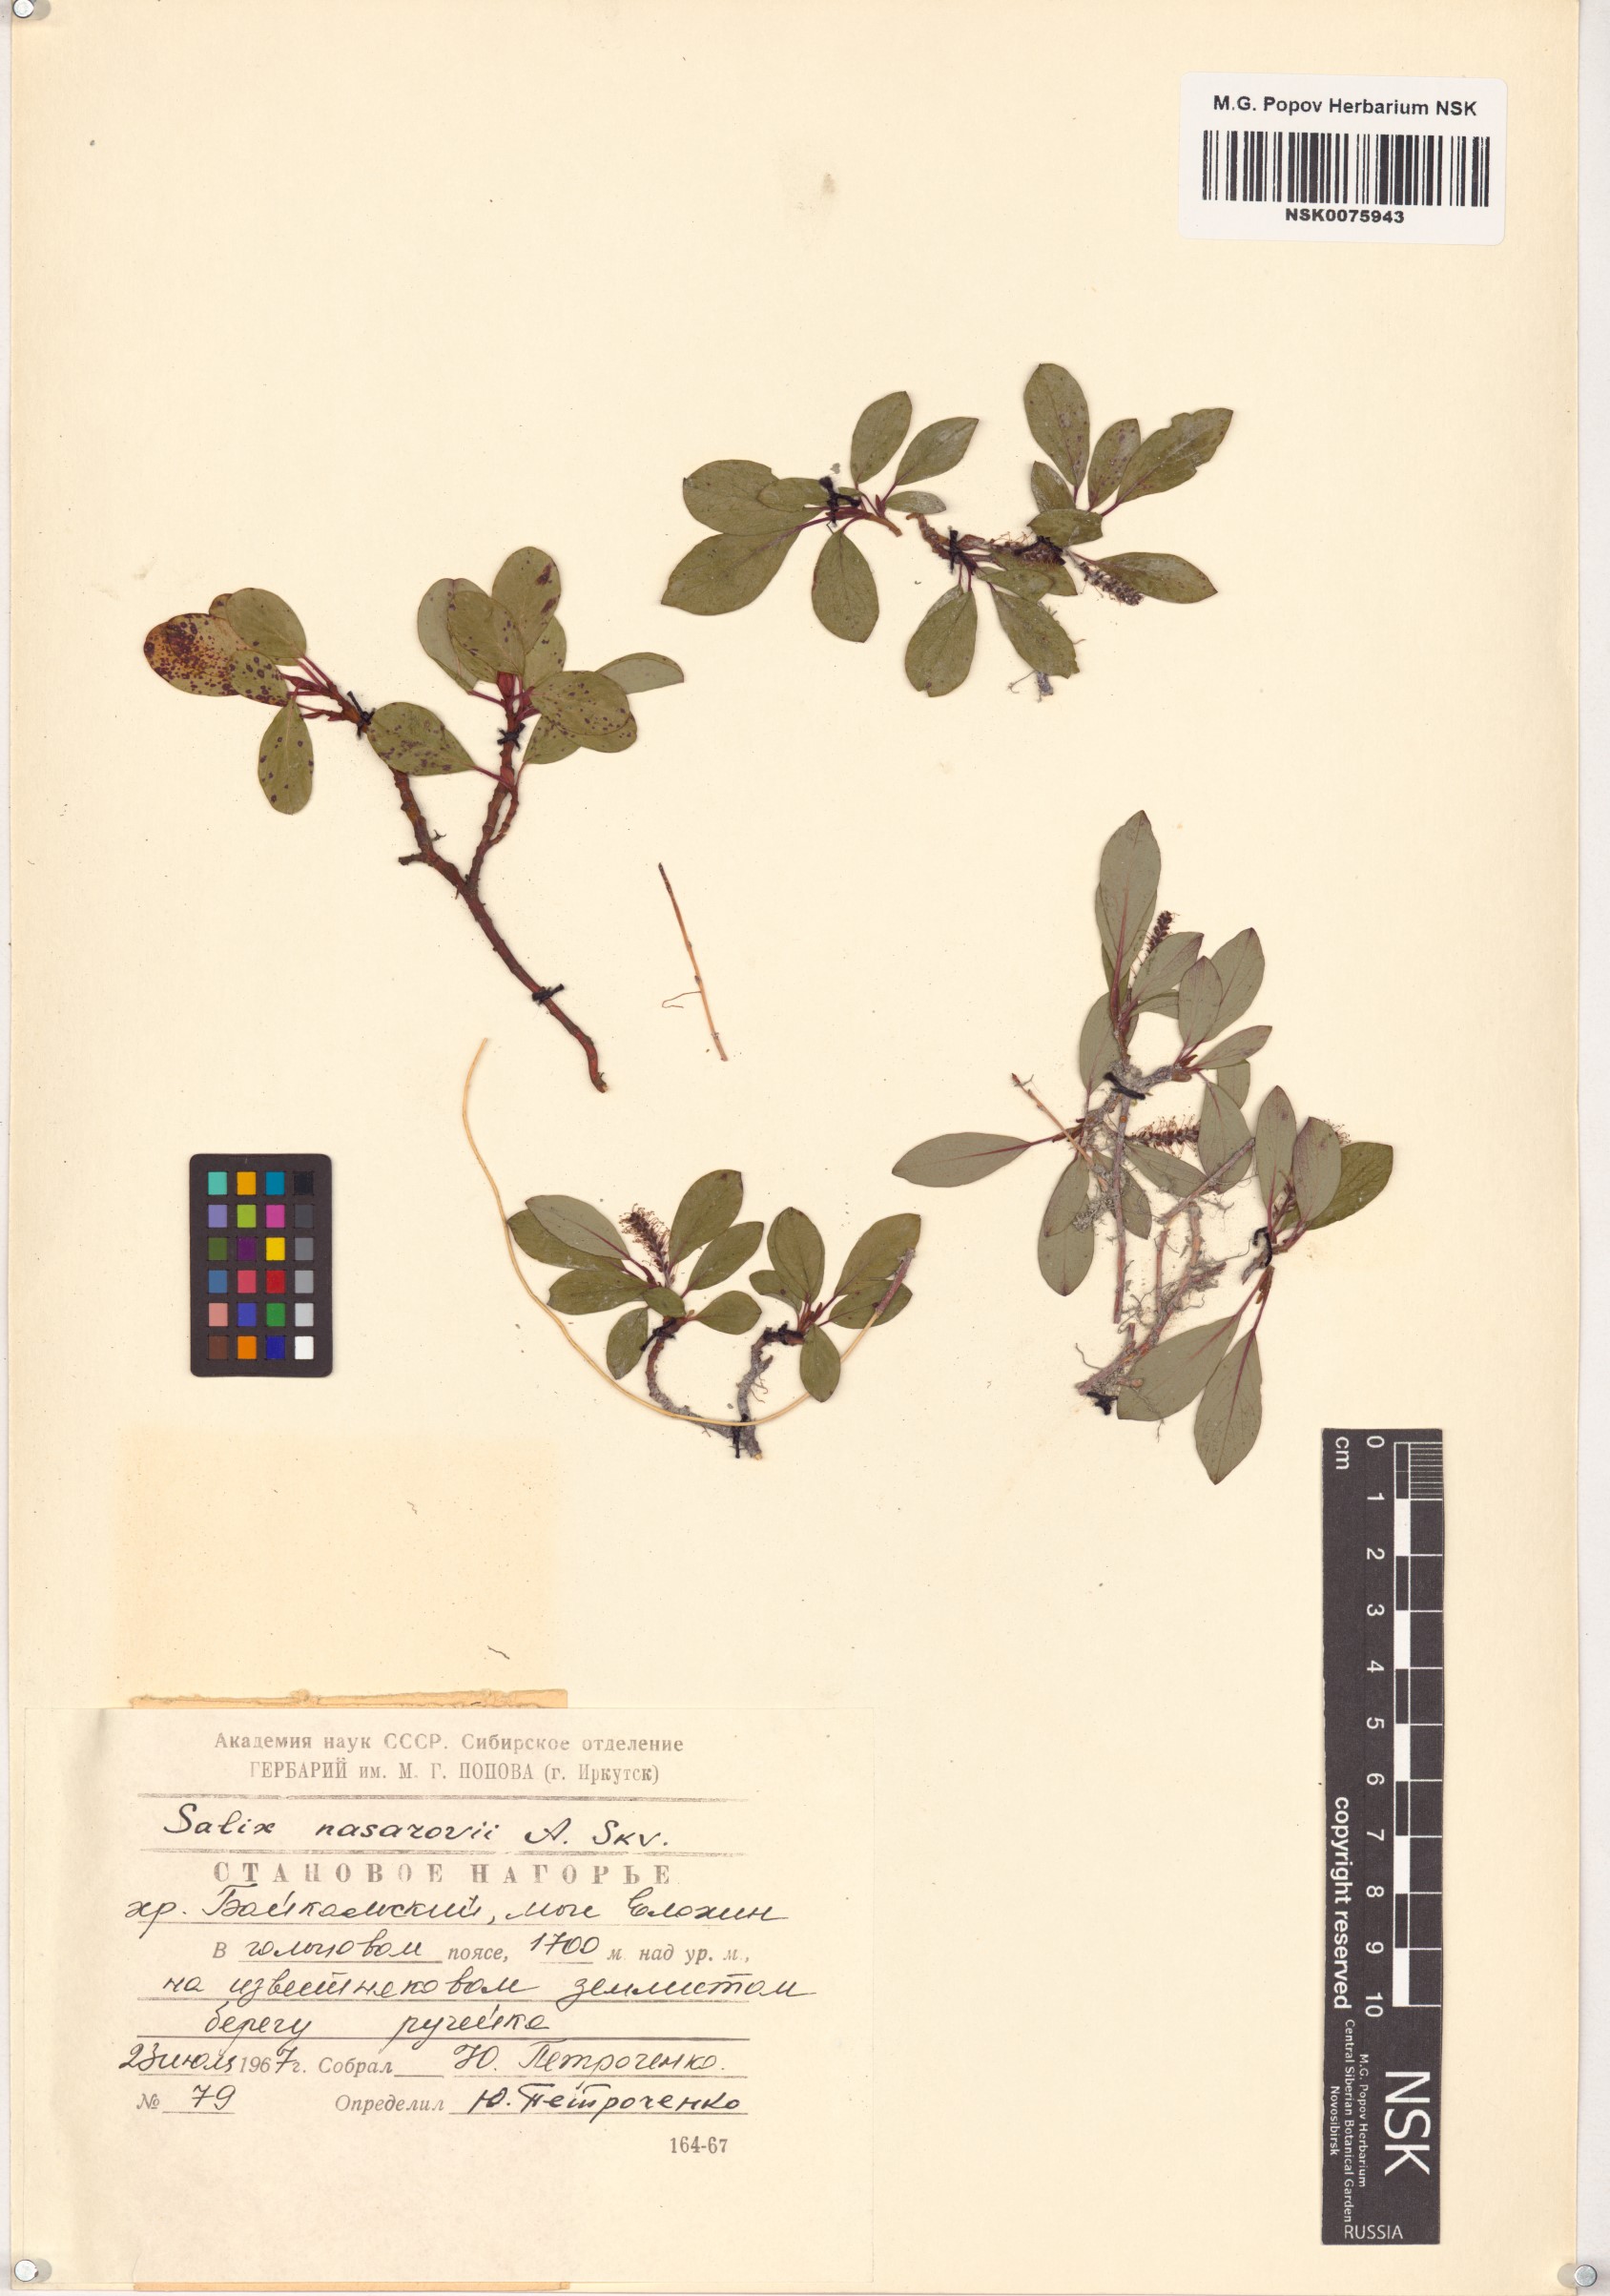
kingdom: Plantae
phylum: Tracheophyta
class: Magnoliopsida
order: Malpighiales
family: Salicaceae
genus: Salix
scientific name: Salix nasarovii
